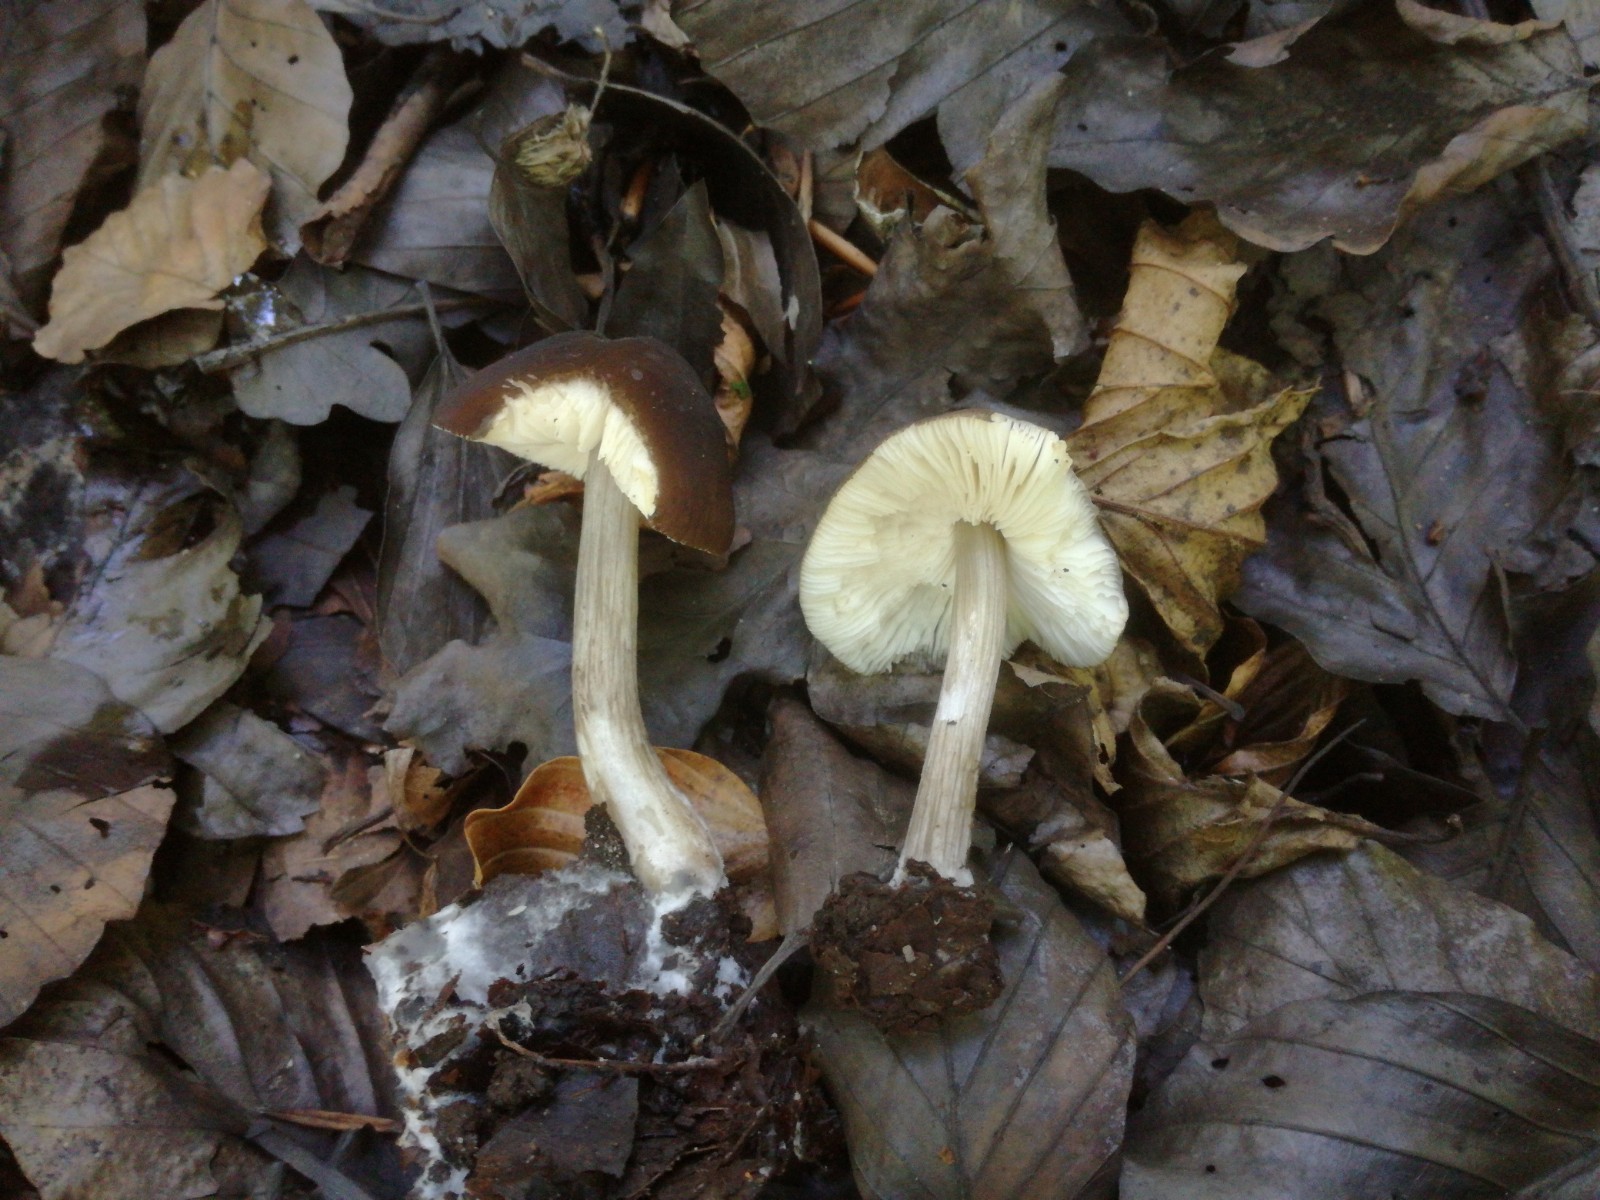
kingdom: Fungi
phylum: Basidiomycota
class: Agaricomycetes
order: Agaricales
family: Pluteaceae
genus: Pluteus
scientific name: Pluteus
